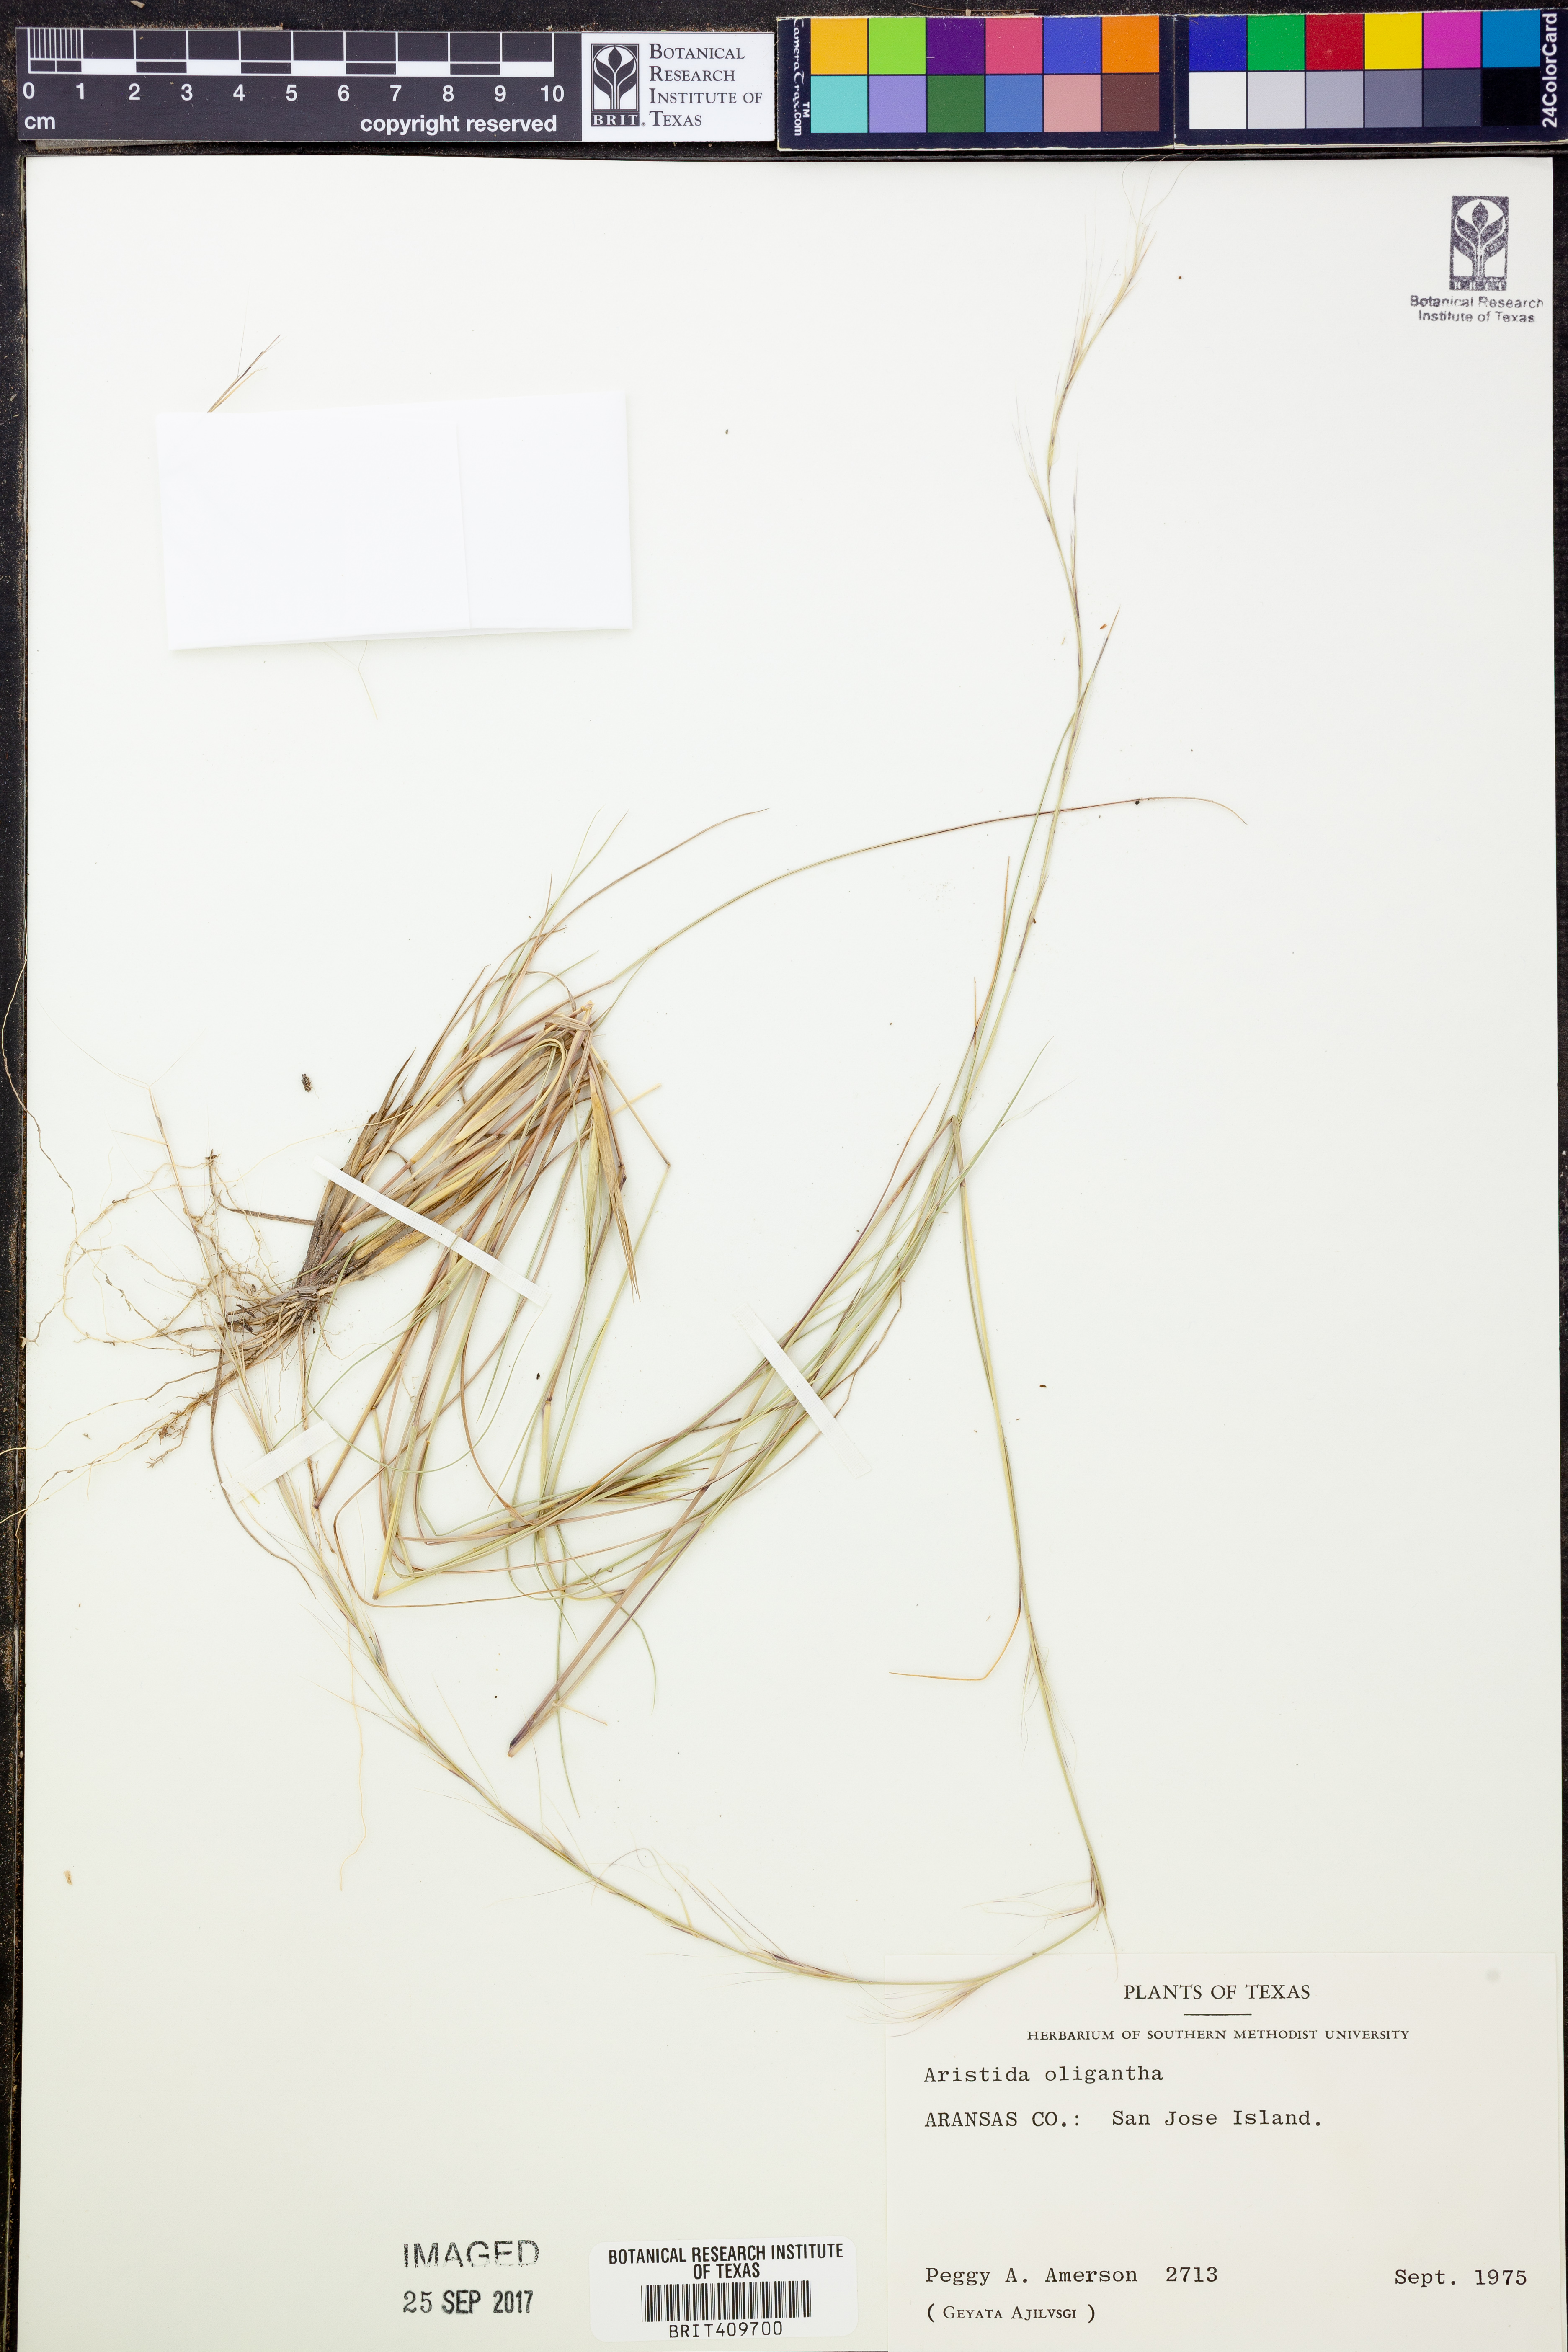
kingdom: Plantae
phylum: Tracheophyta
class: Liliopsida
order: Poales
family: Poaceae
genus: Aristida
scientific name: Aristida oligantha
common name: Few-flowered aristida
